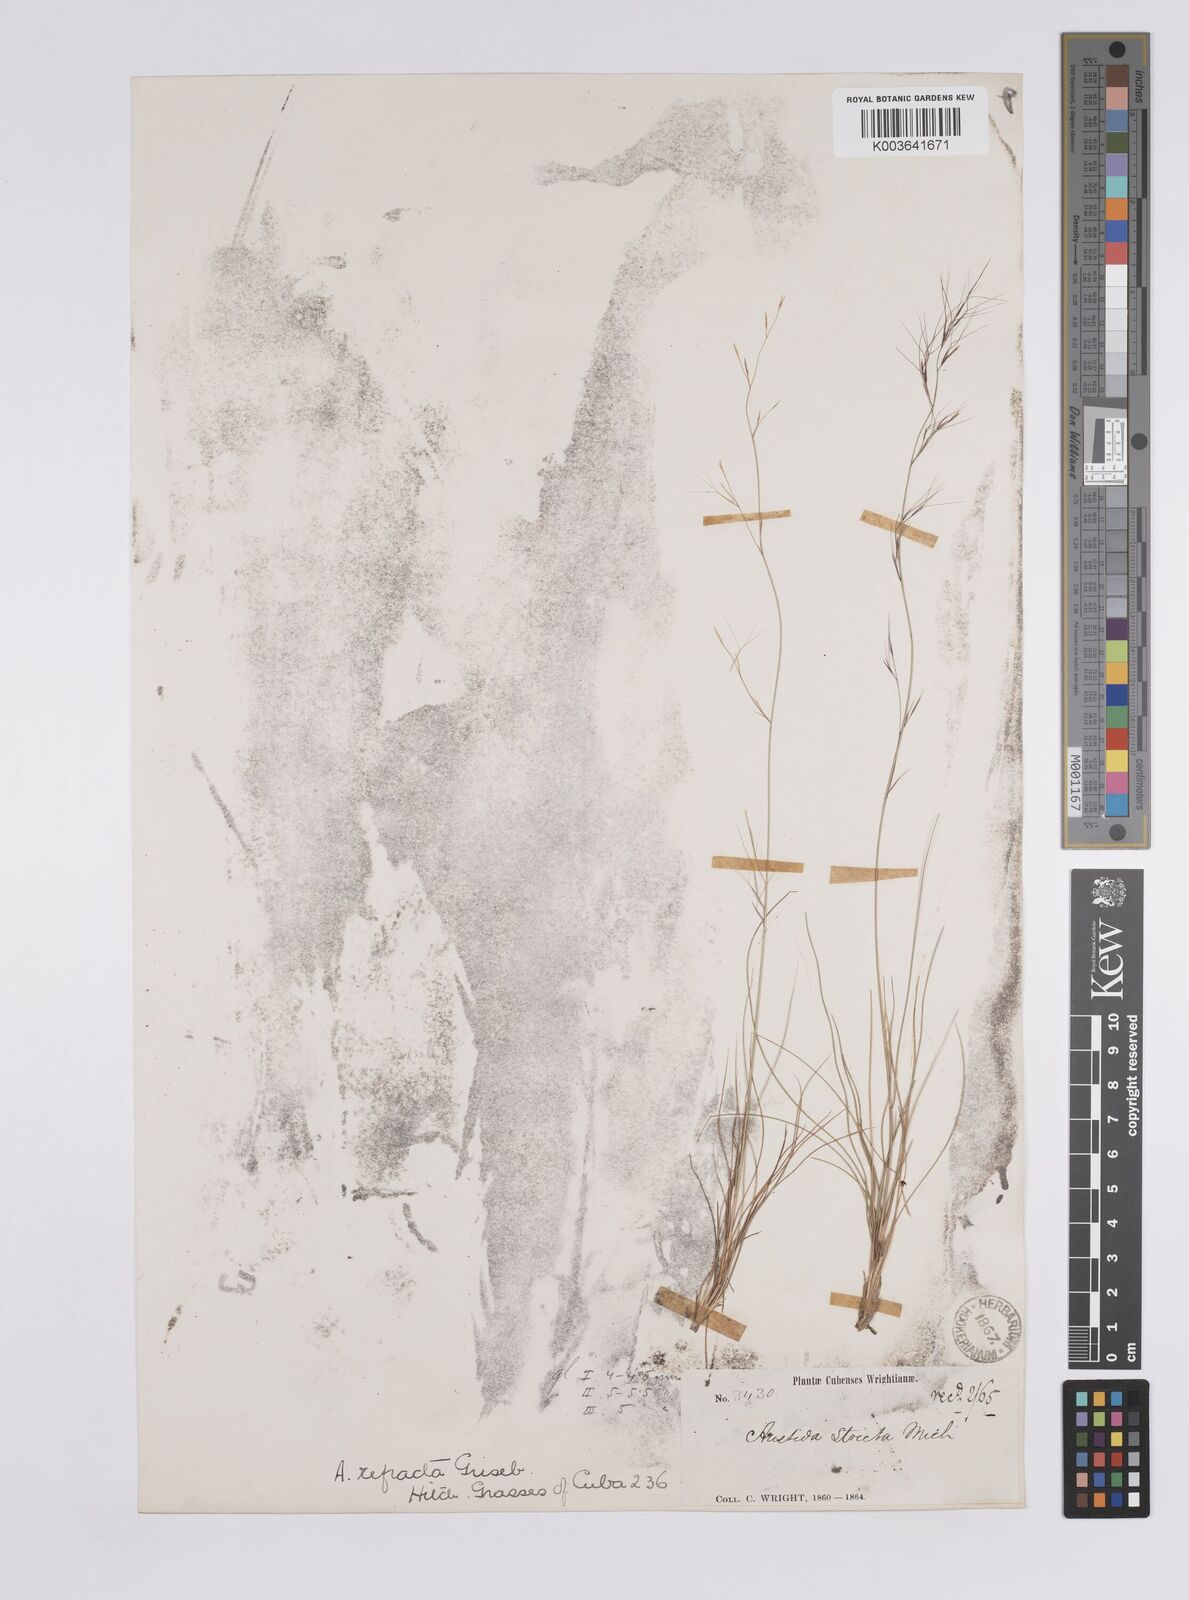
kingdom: Plantae
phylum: Tracheophyta
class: Liliopsida
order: Poales
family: Poaceae
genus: Aristida
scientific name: Aristida refracta
